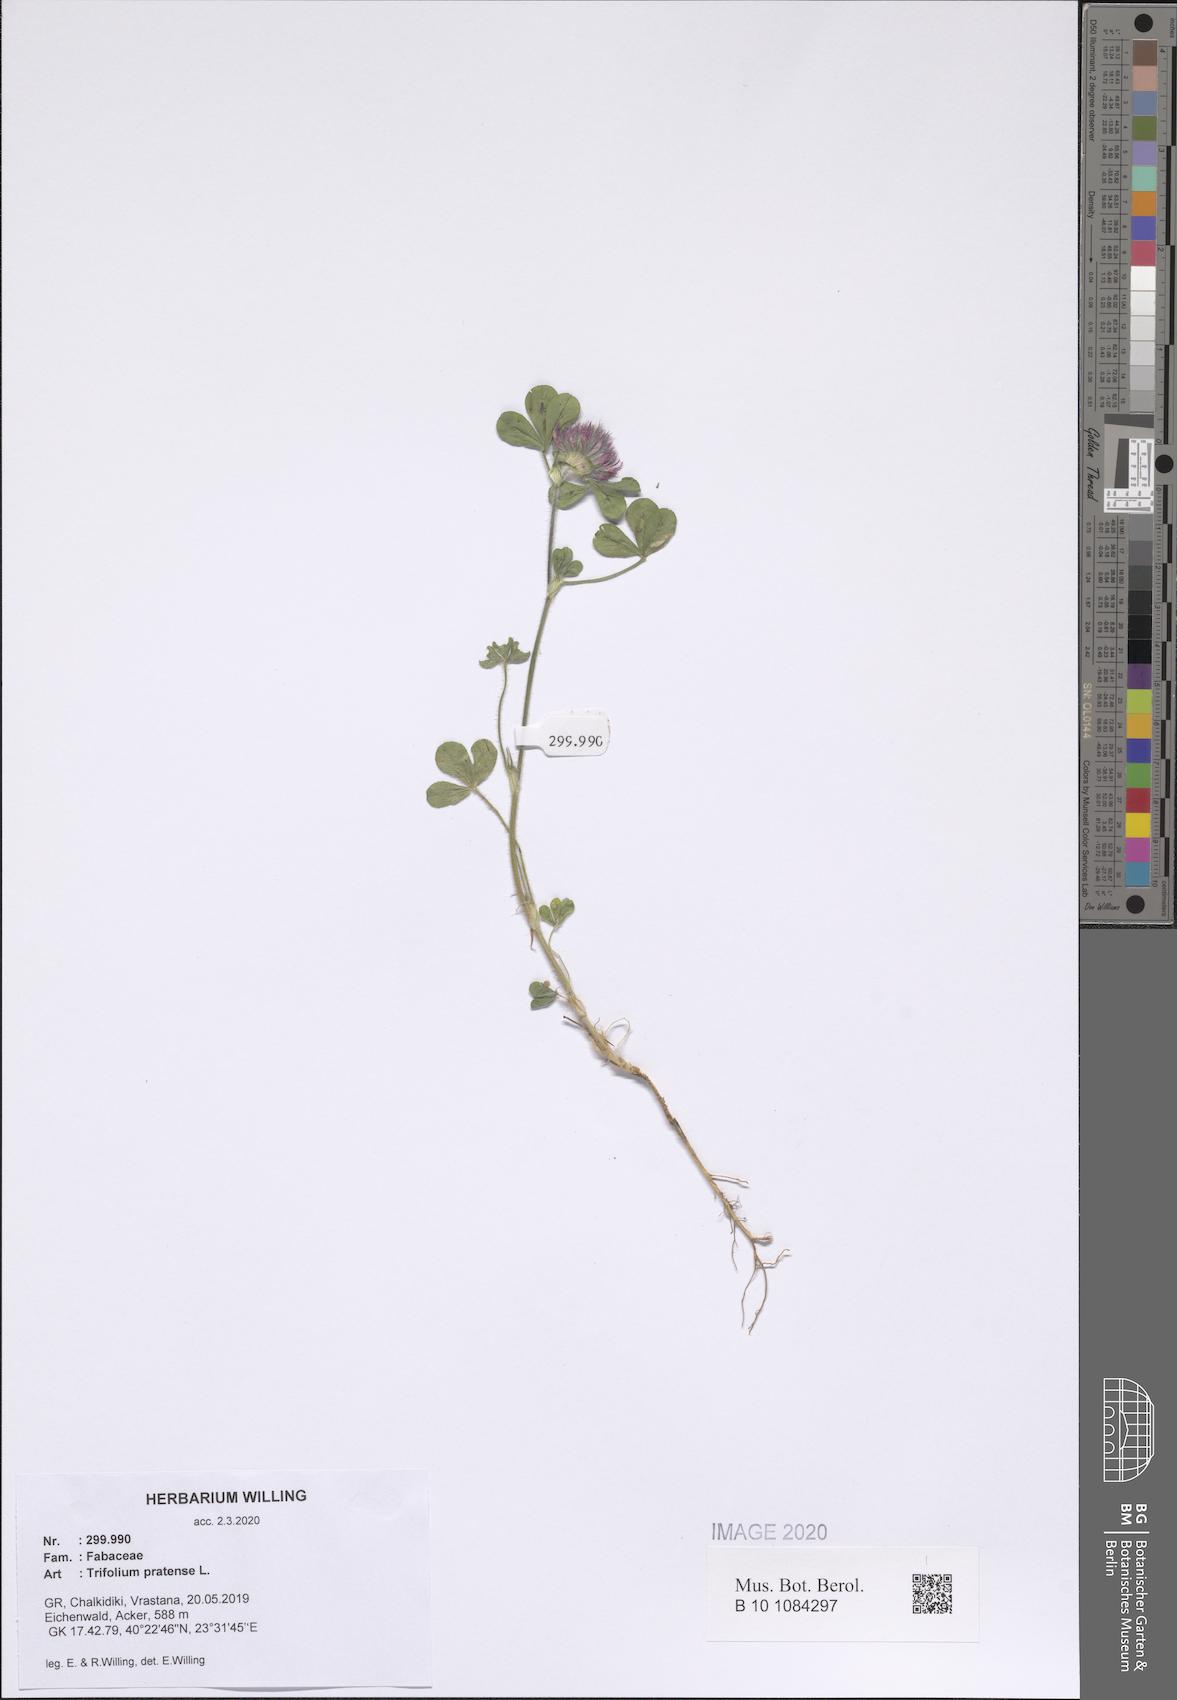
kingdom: Plantae
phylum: Tracheophyta
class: Magnoliopsida
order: Fabales
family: Fabaceae
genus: Trifolium
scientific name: Trifolium pratense
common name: Red clover
